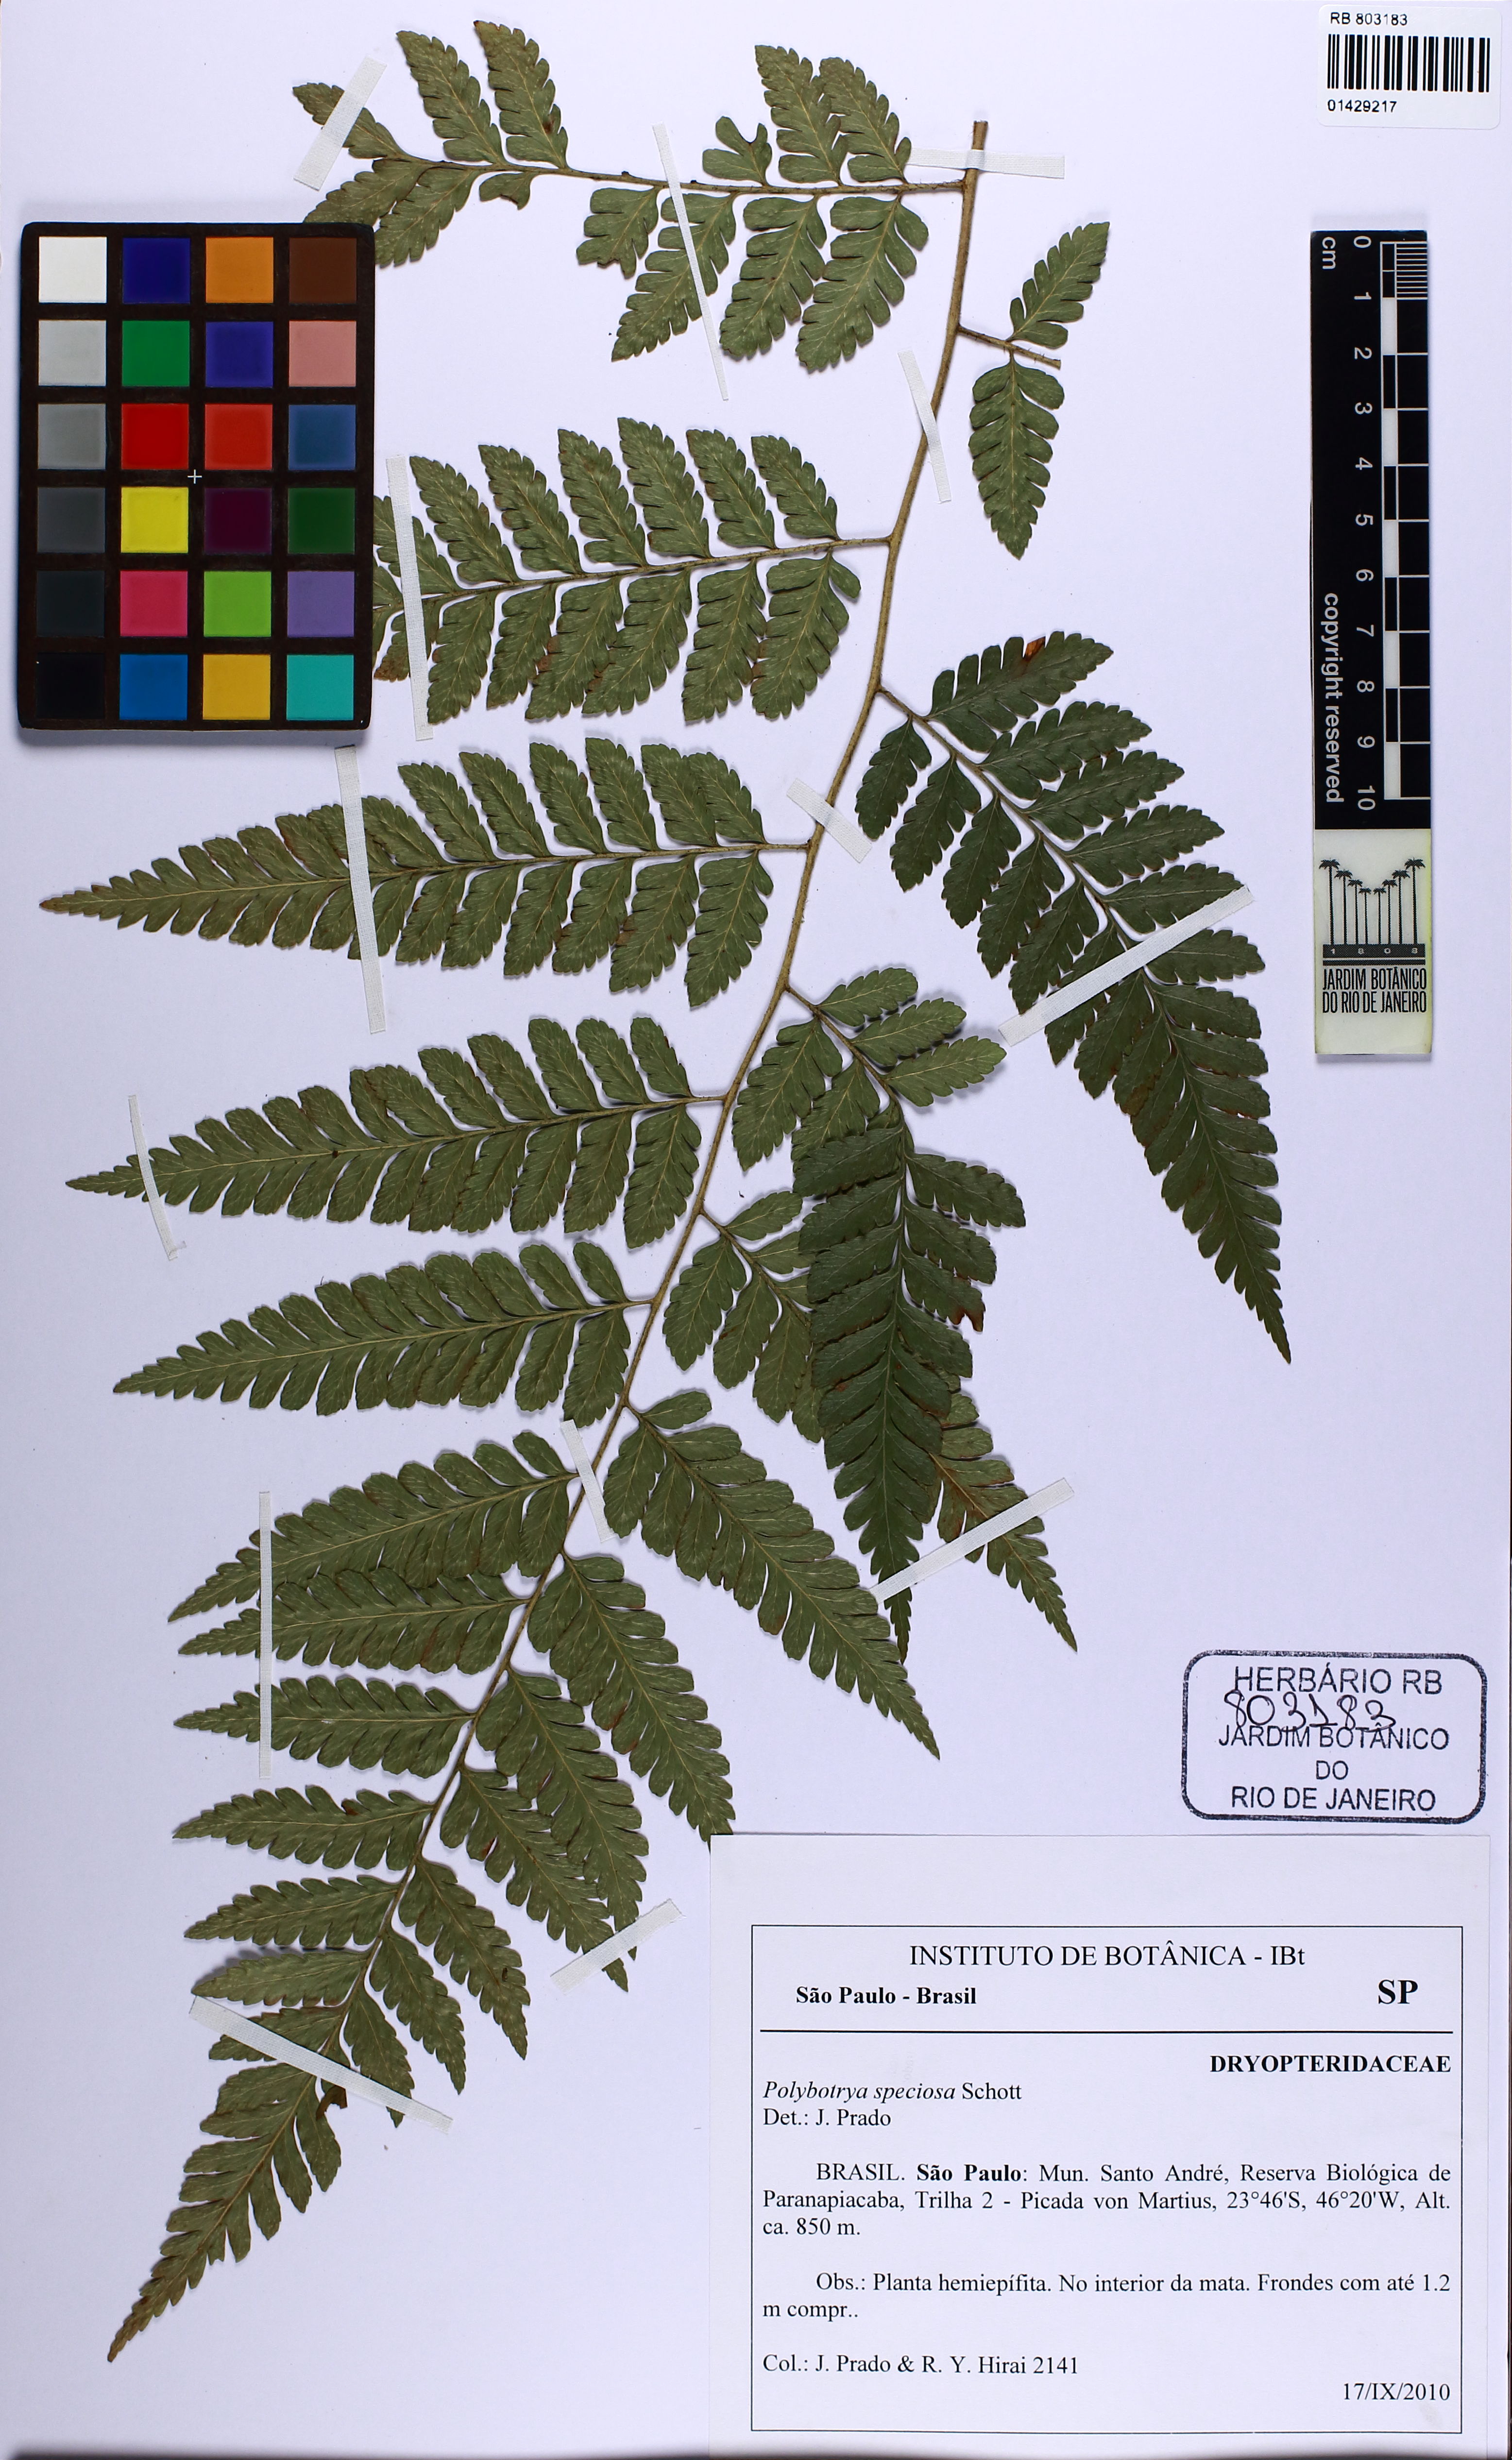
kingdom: Plantae
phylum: Tracheophyta
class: Polypodiopsida
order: Polypodiales
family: Dryopteridaceae
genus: Polybotrya
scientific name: Polybotrya speciosa
